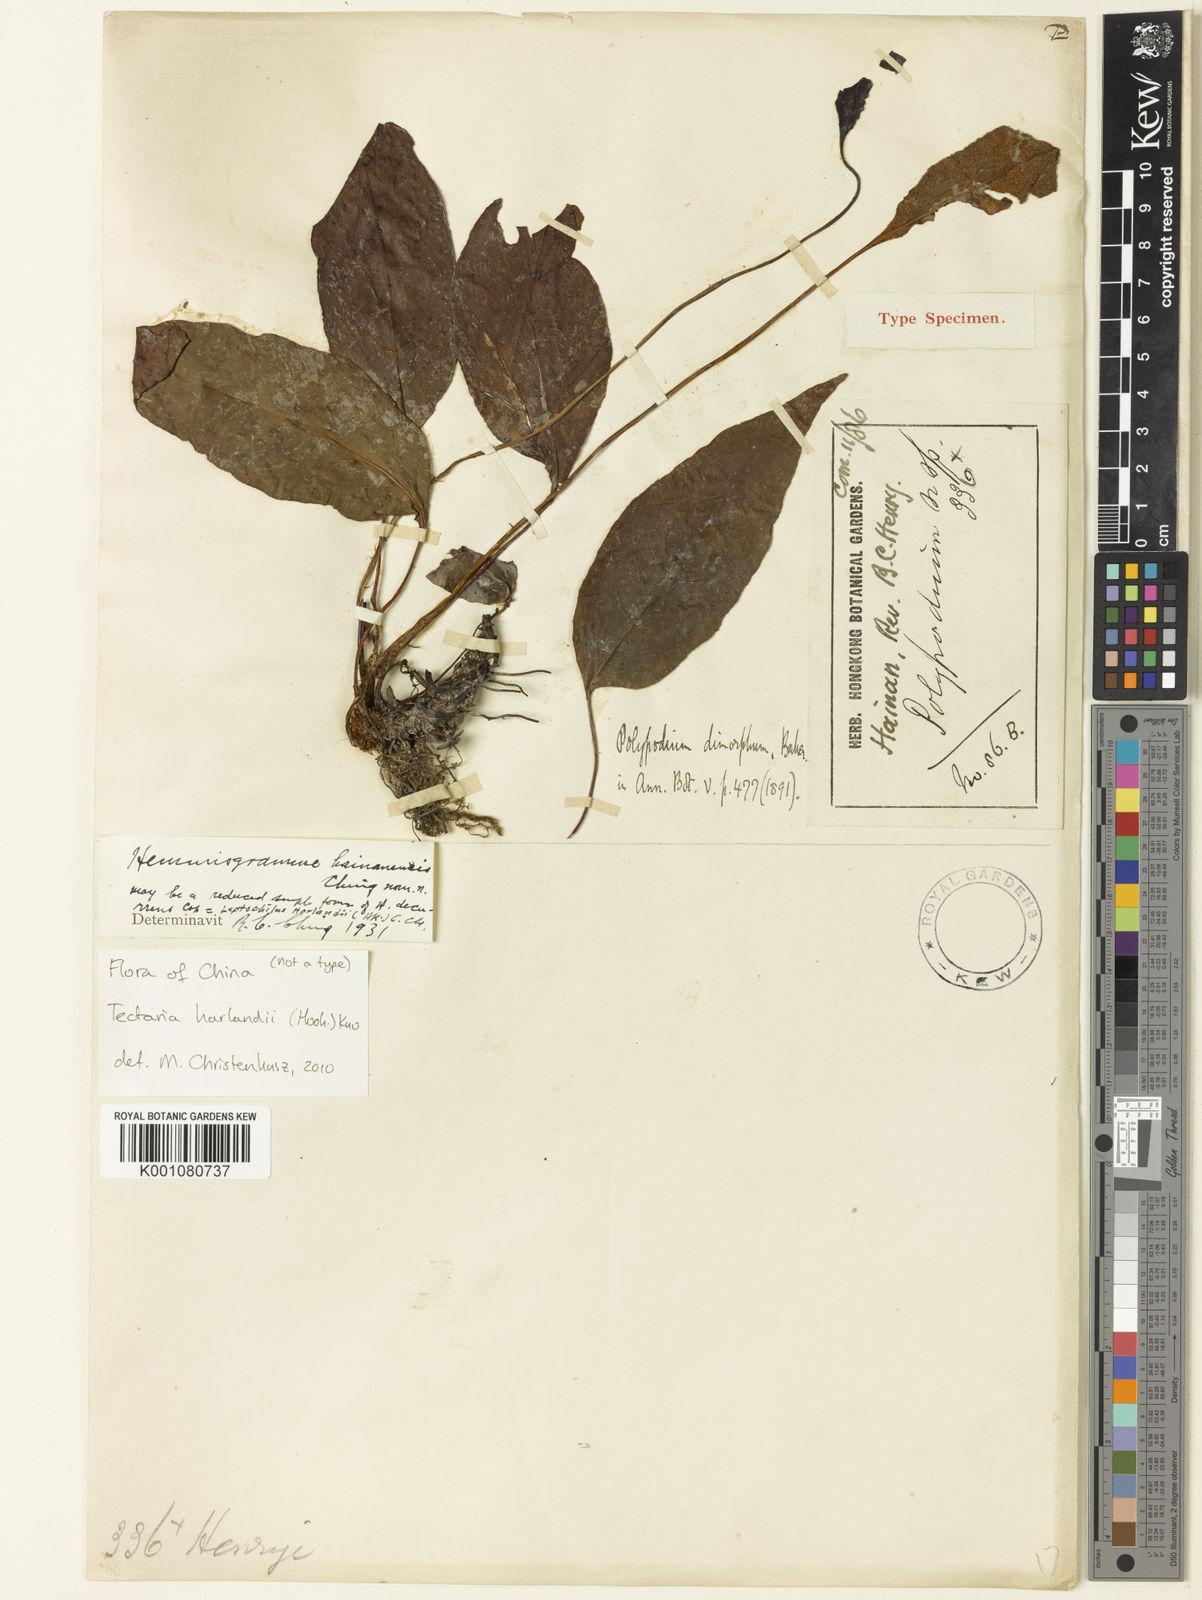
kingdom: Plantae
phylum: Tracheophyta
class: Polypodiopsida
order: Polypodiales
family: Tectariaceae
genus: Tectaria
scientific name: Tectaria harlandii
